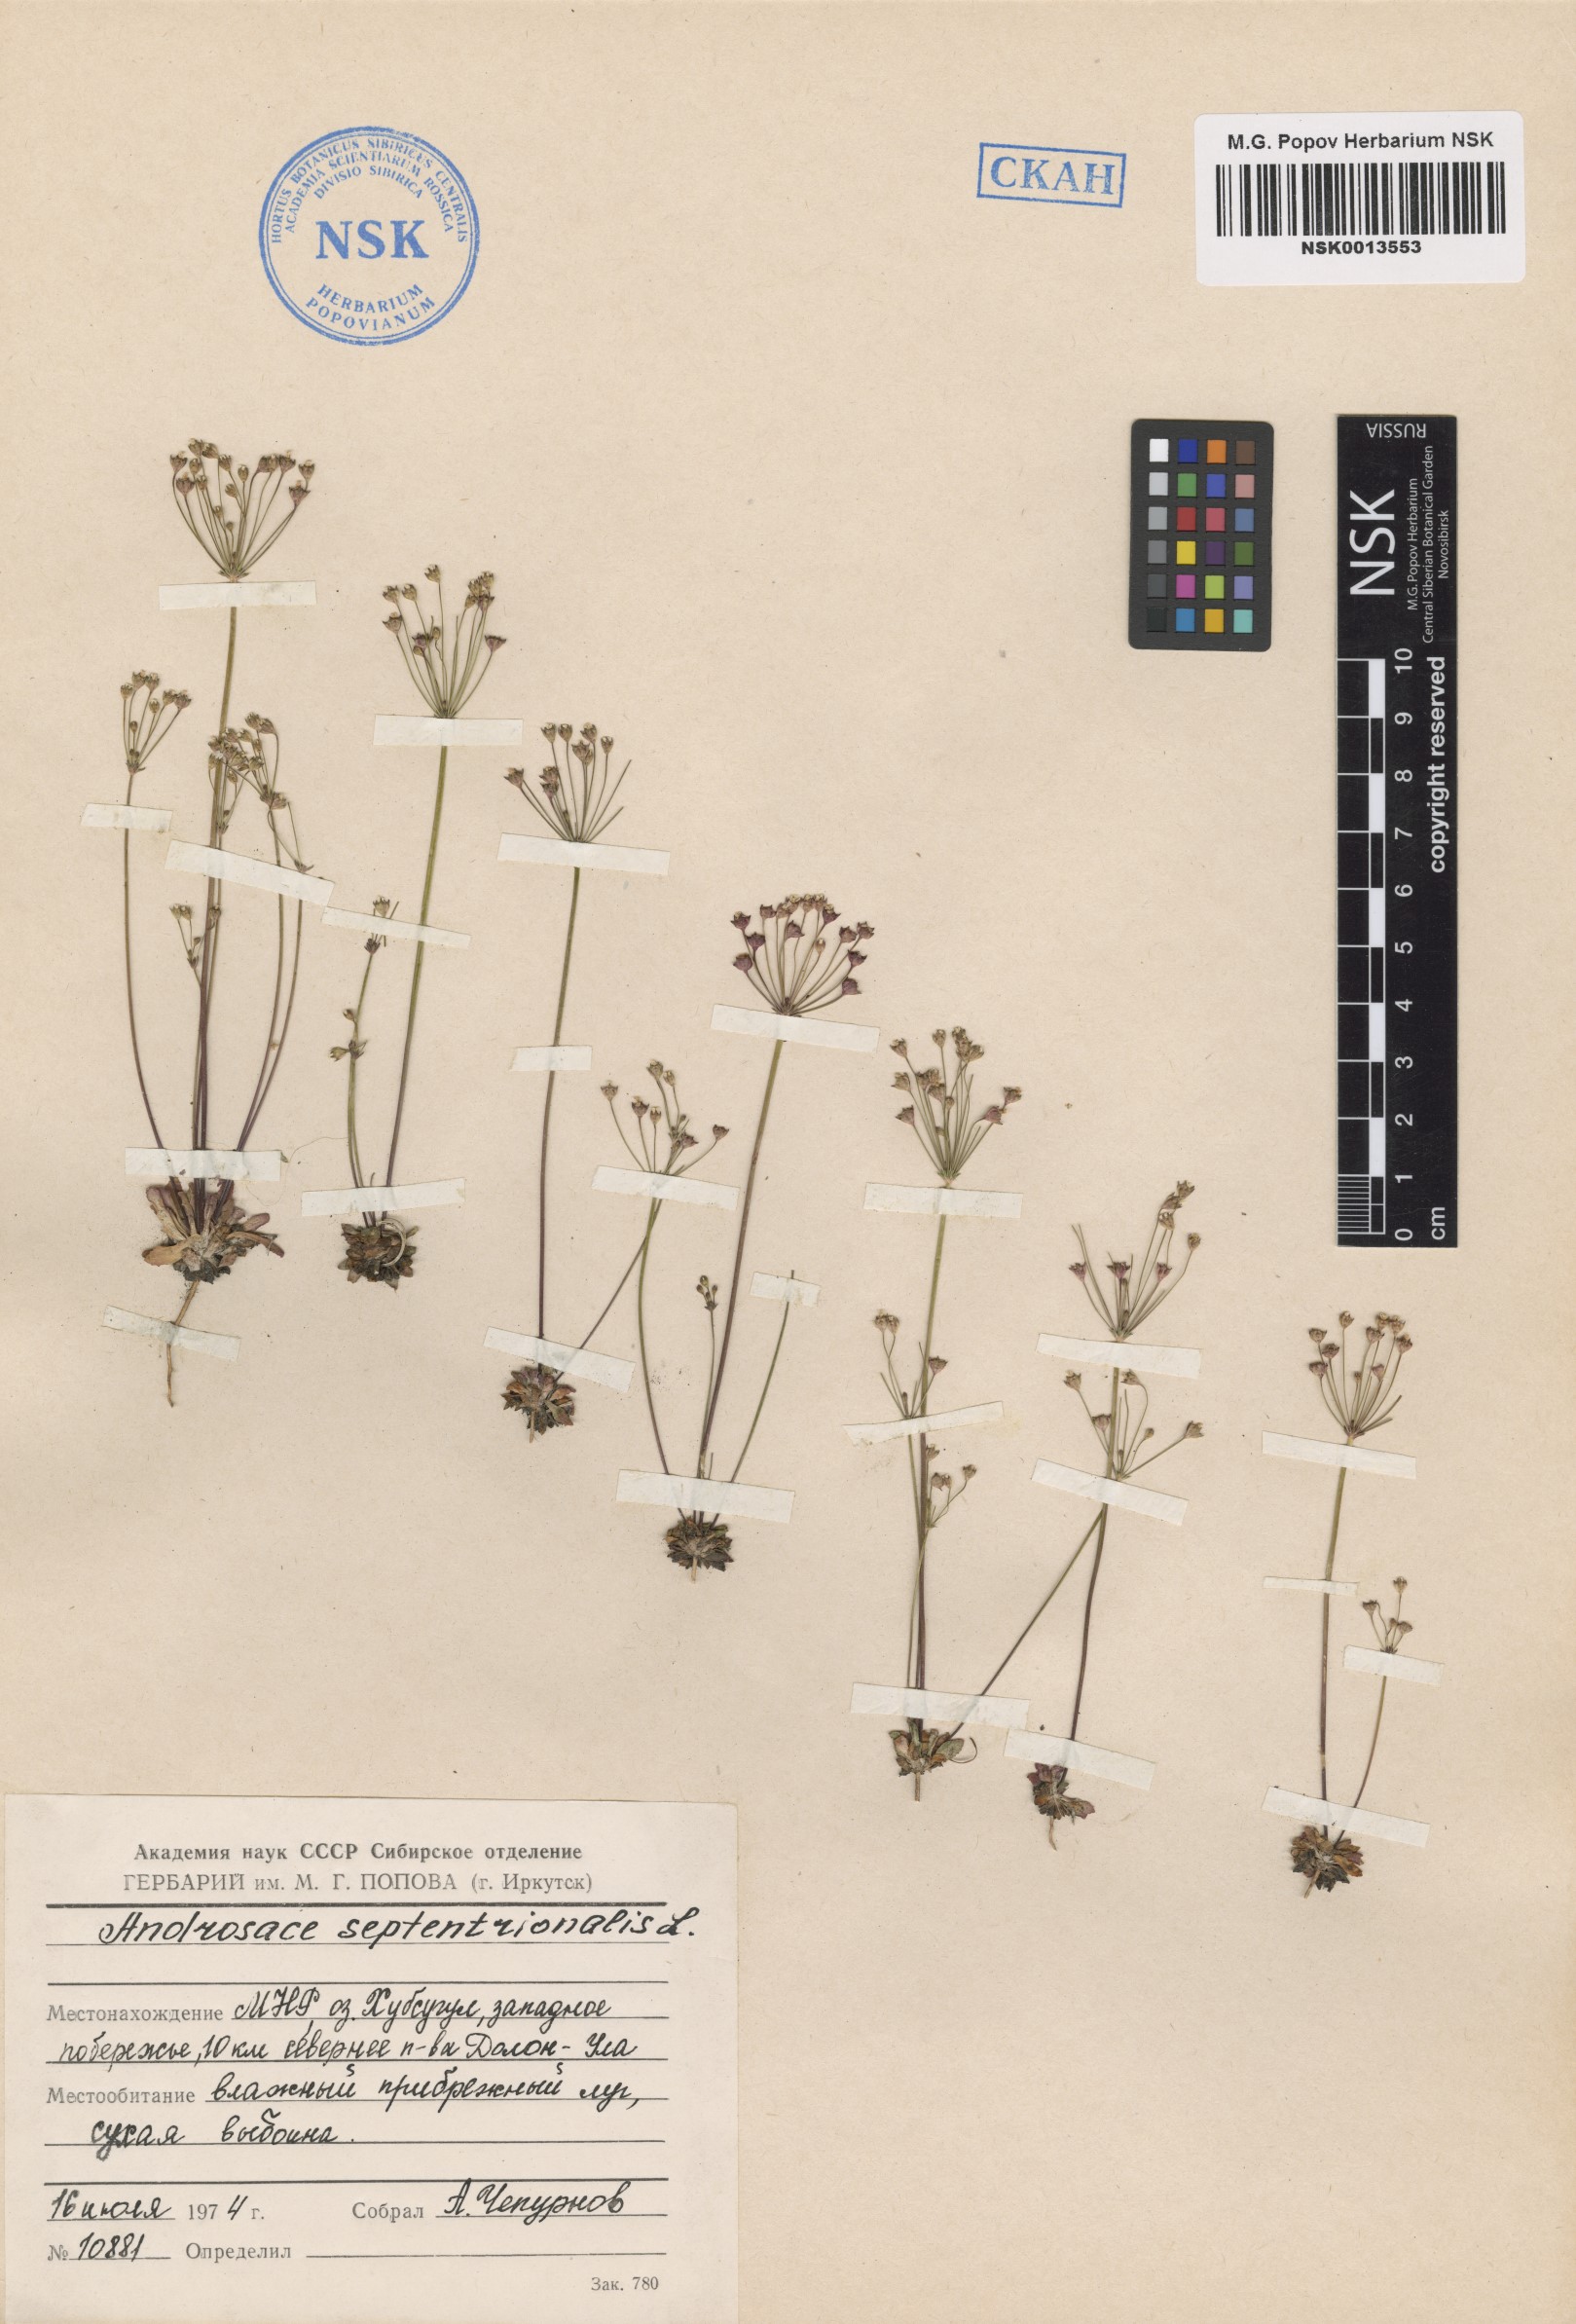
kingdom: Plantae
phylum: Tracheophyta
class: Magnoliopsida
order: Ericales
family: Primulaceae
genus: Androsace
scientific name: Androsace septentrionalis
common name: Hairy northern fairy-candelabra
